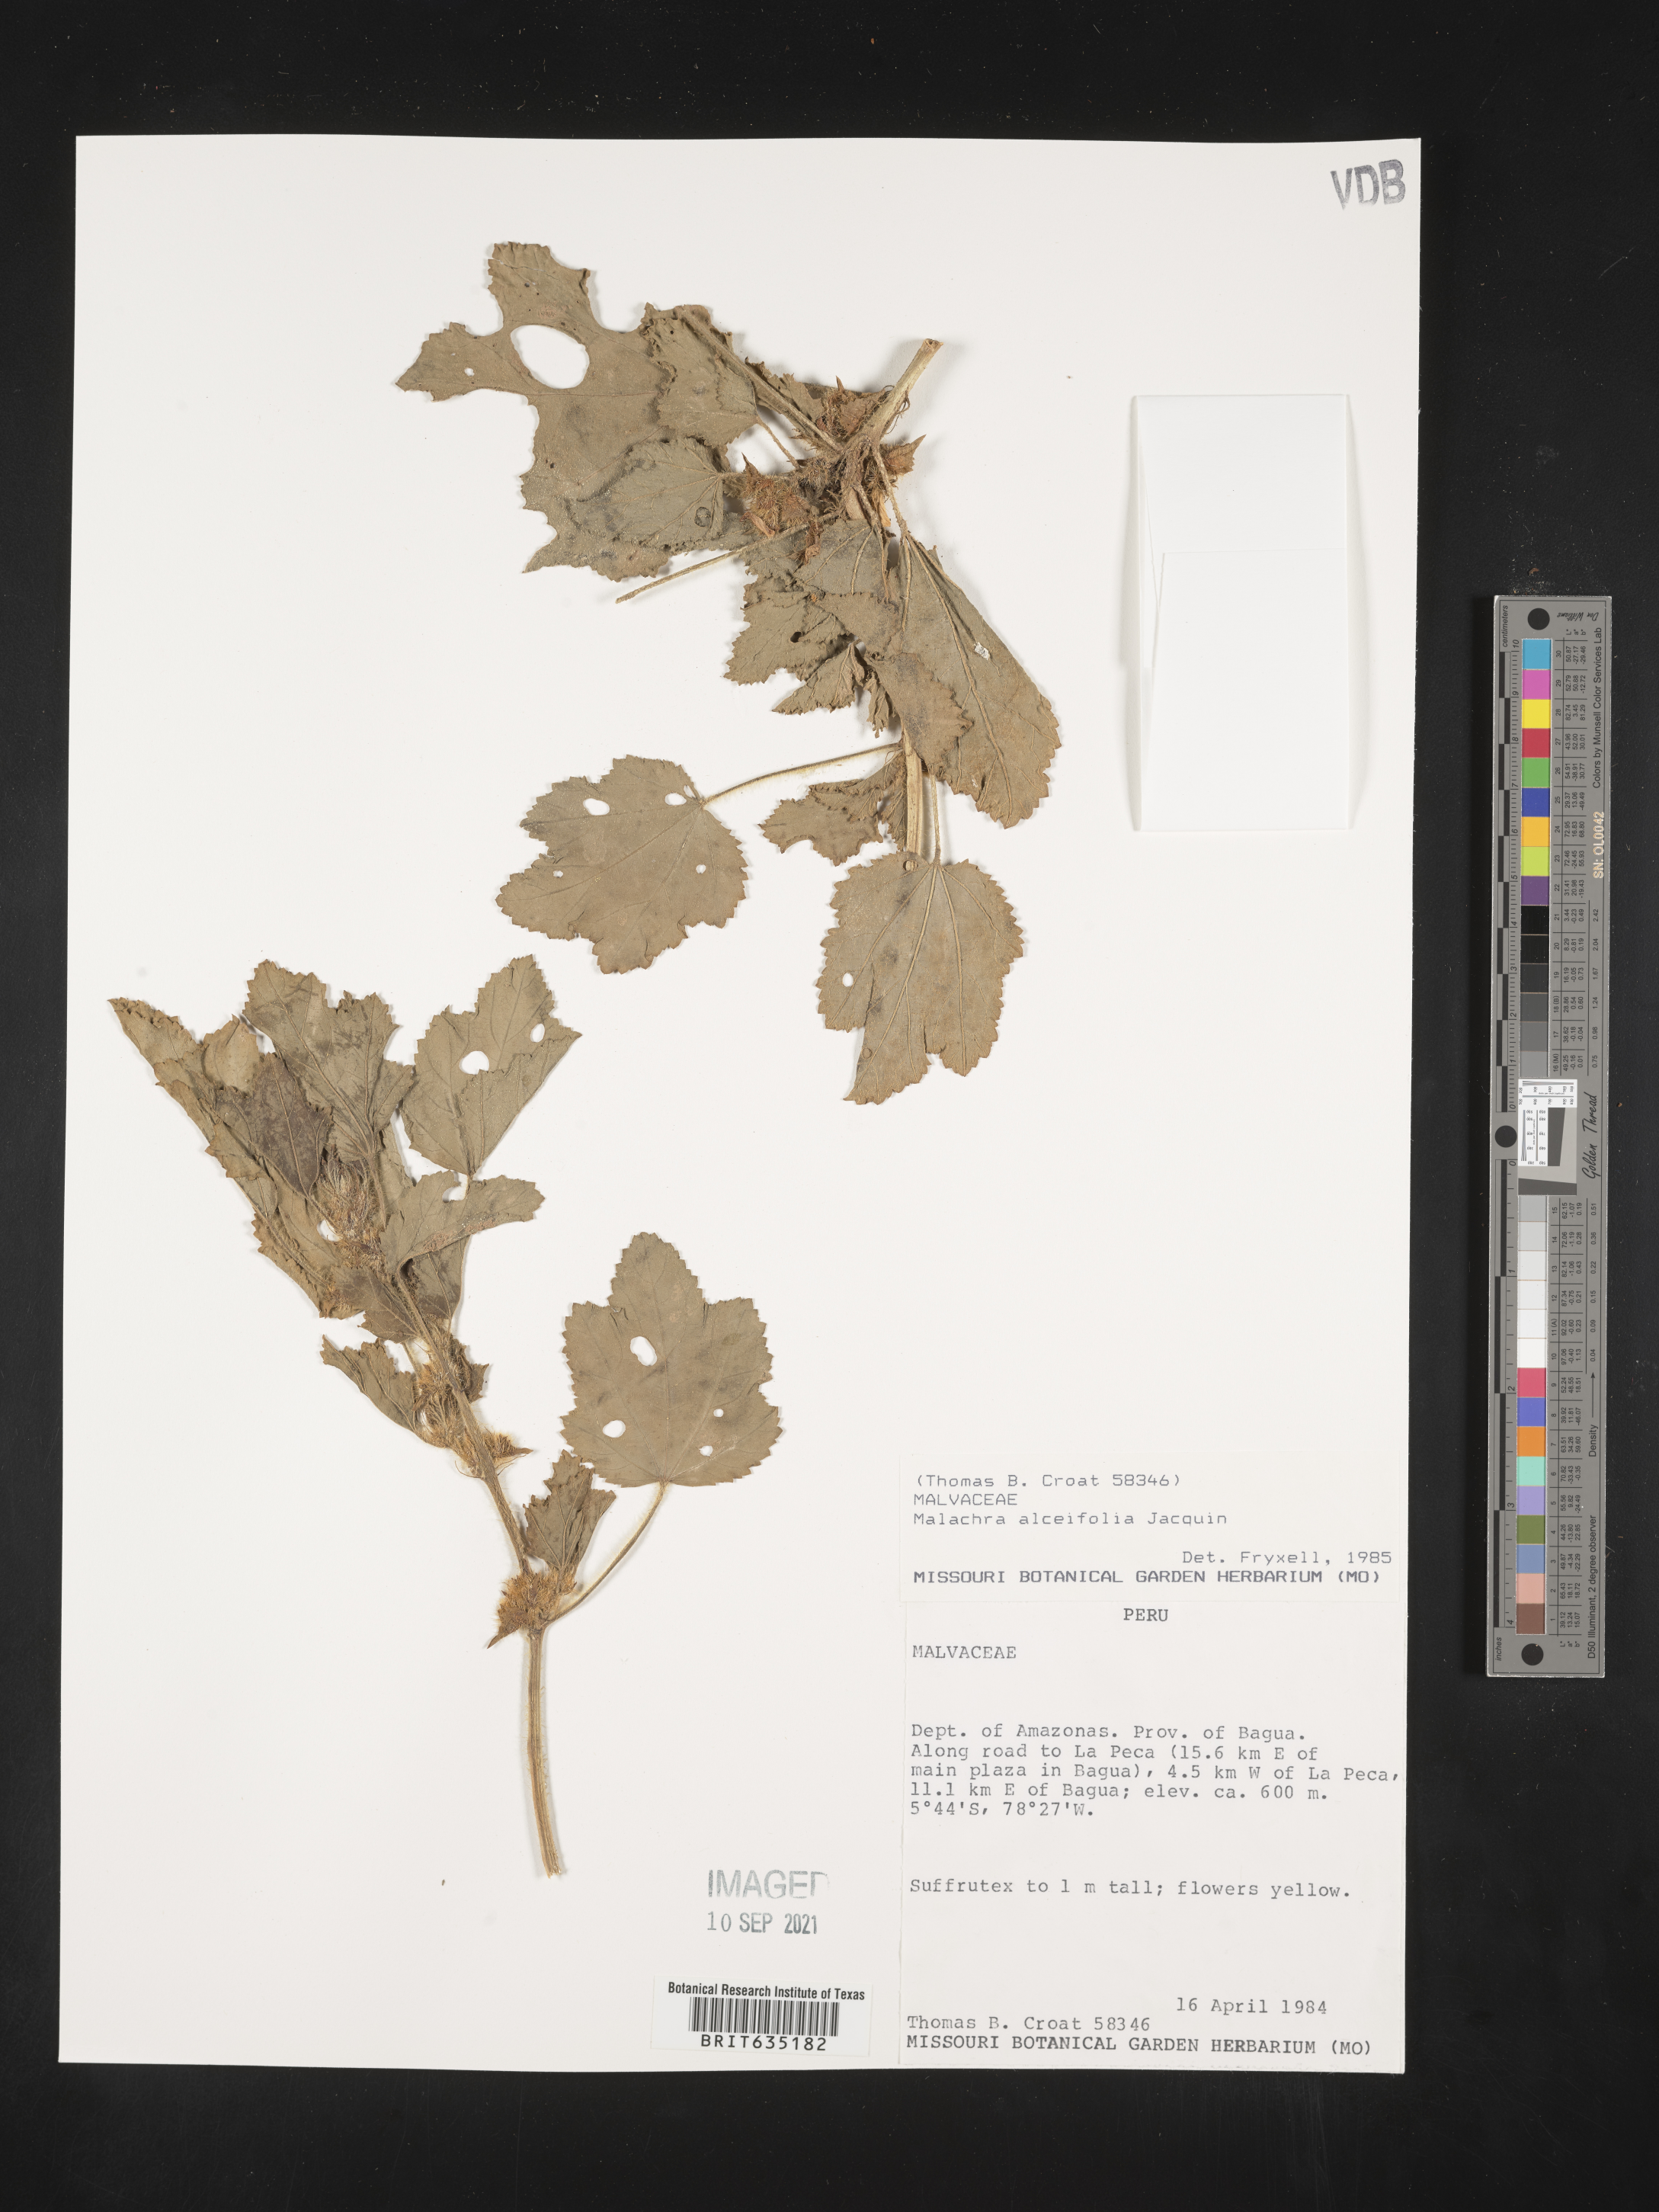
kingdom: Plantae
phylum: Tracheophyta
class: Magnoliopsida
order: Malvales
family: Malvaceae
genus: Malachra
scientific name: Malachra
